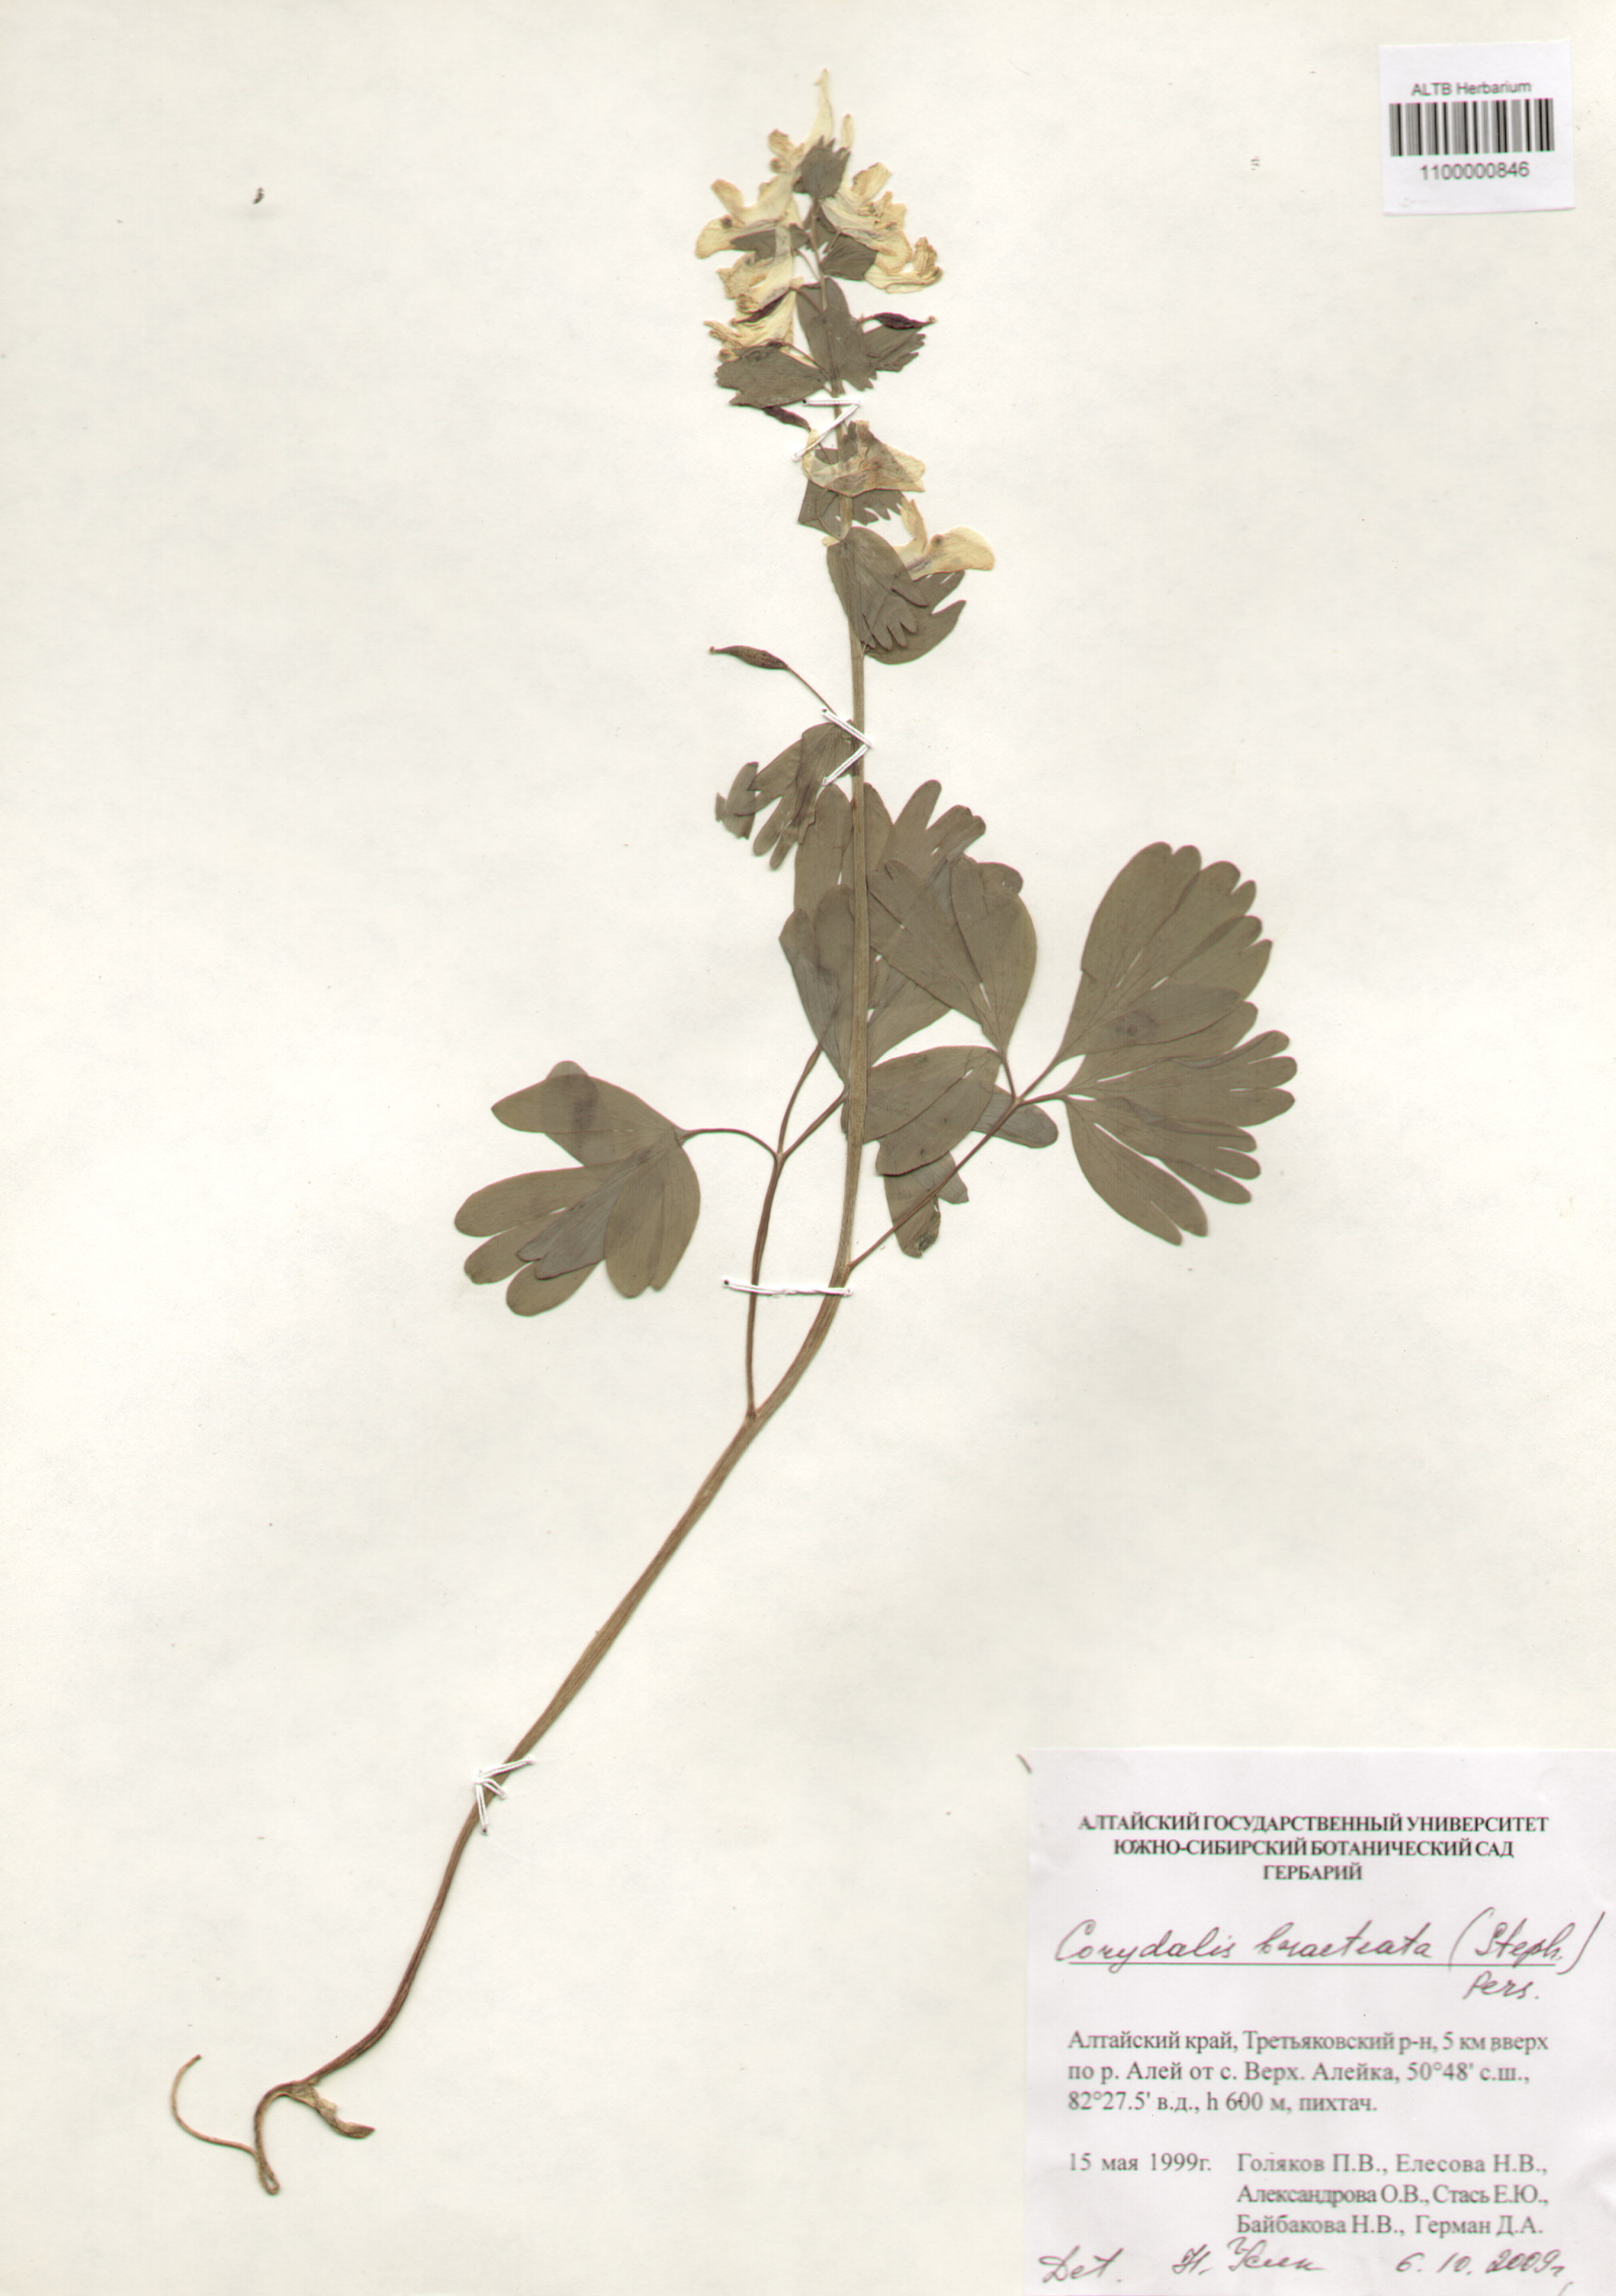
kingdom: Plantae
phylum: Tracheophyta
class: Magnoliopsida
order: Ranunculales
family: Papaveraceae
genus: Corydalis
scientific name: Corydalis bracteata
